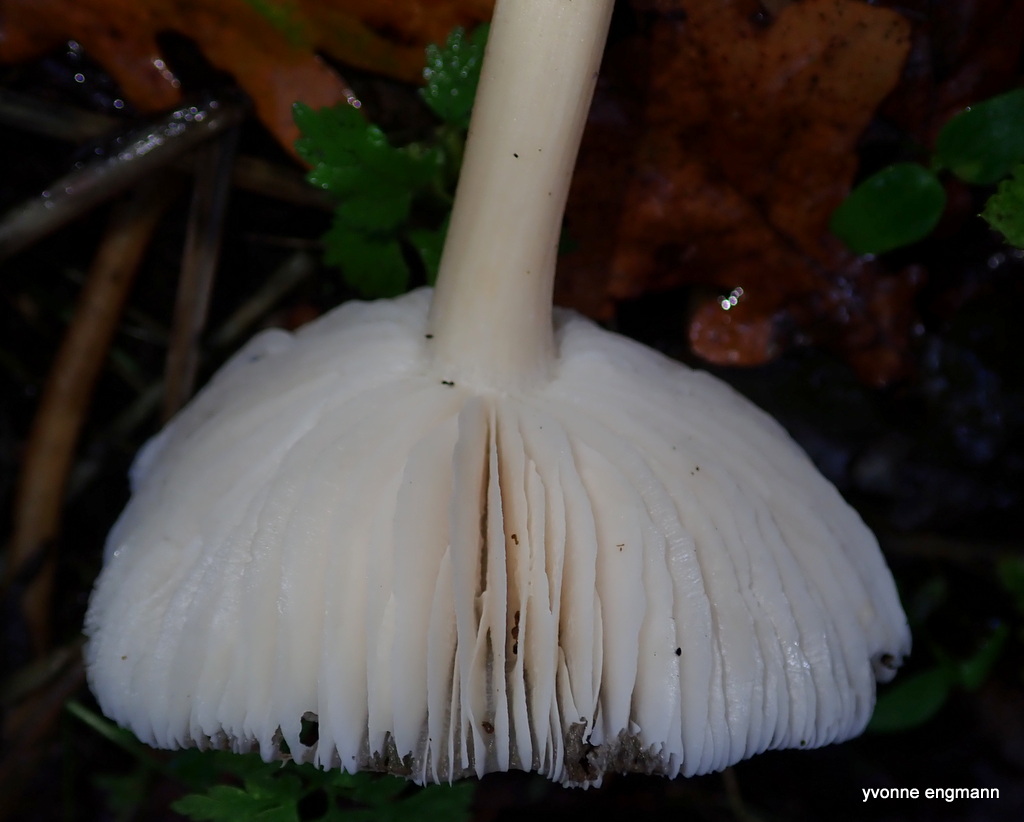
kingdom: Fungi
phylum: Basidiomycota
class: Agaricomycetes
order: Agaricales
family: Tricholomataceae
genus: Megacollybia
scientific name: Megacollybia platyphylla
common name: bredbladet væbnerhat
